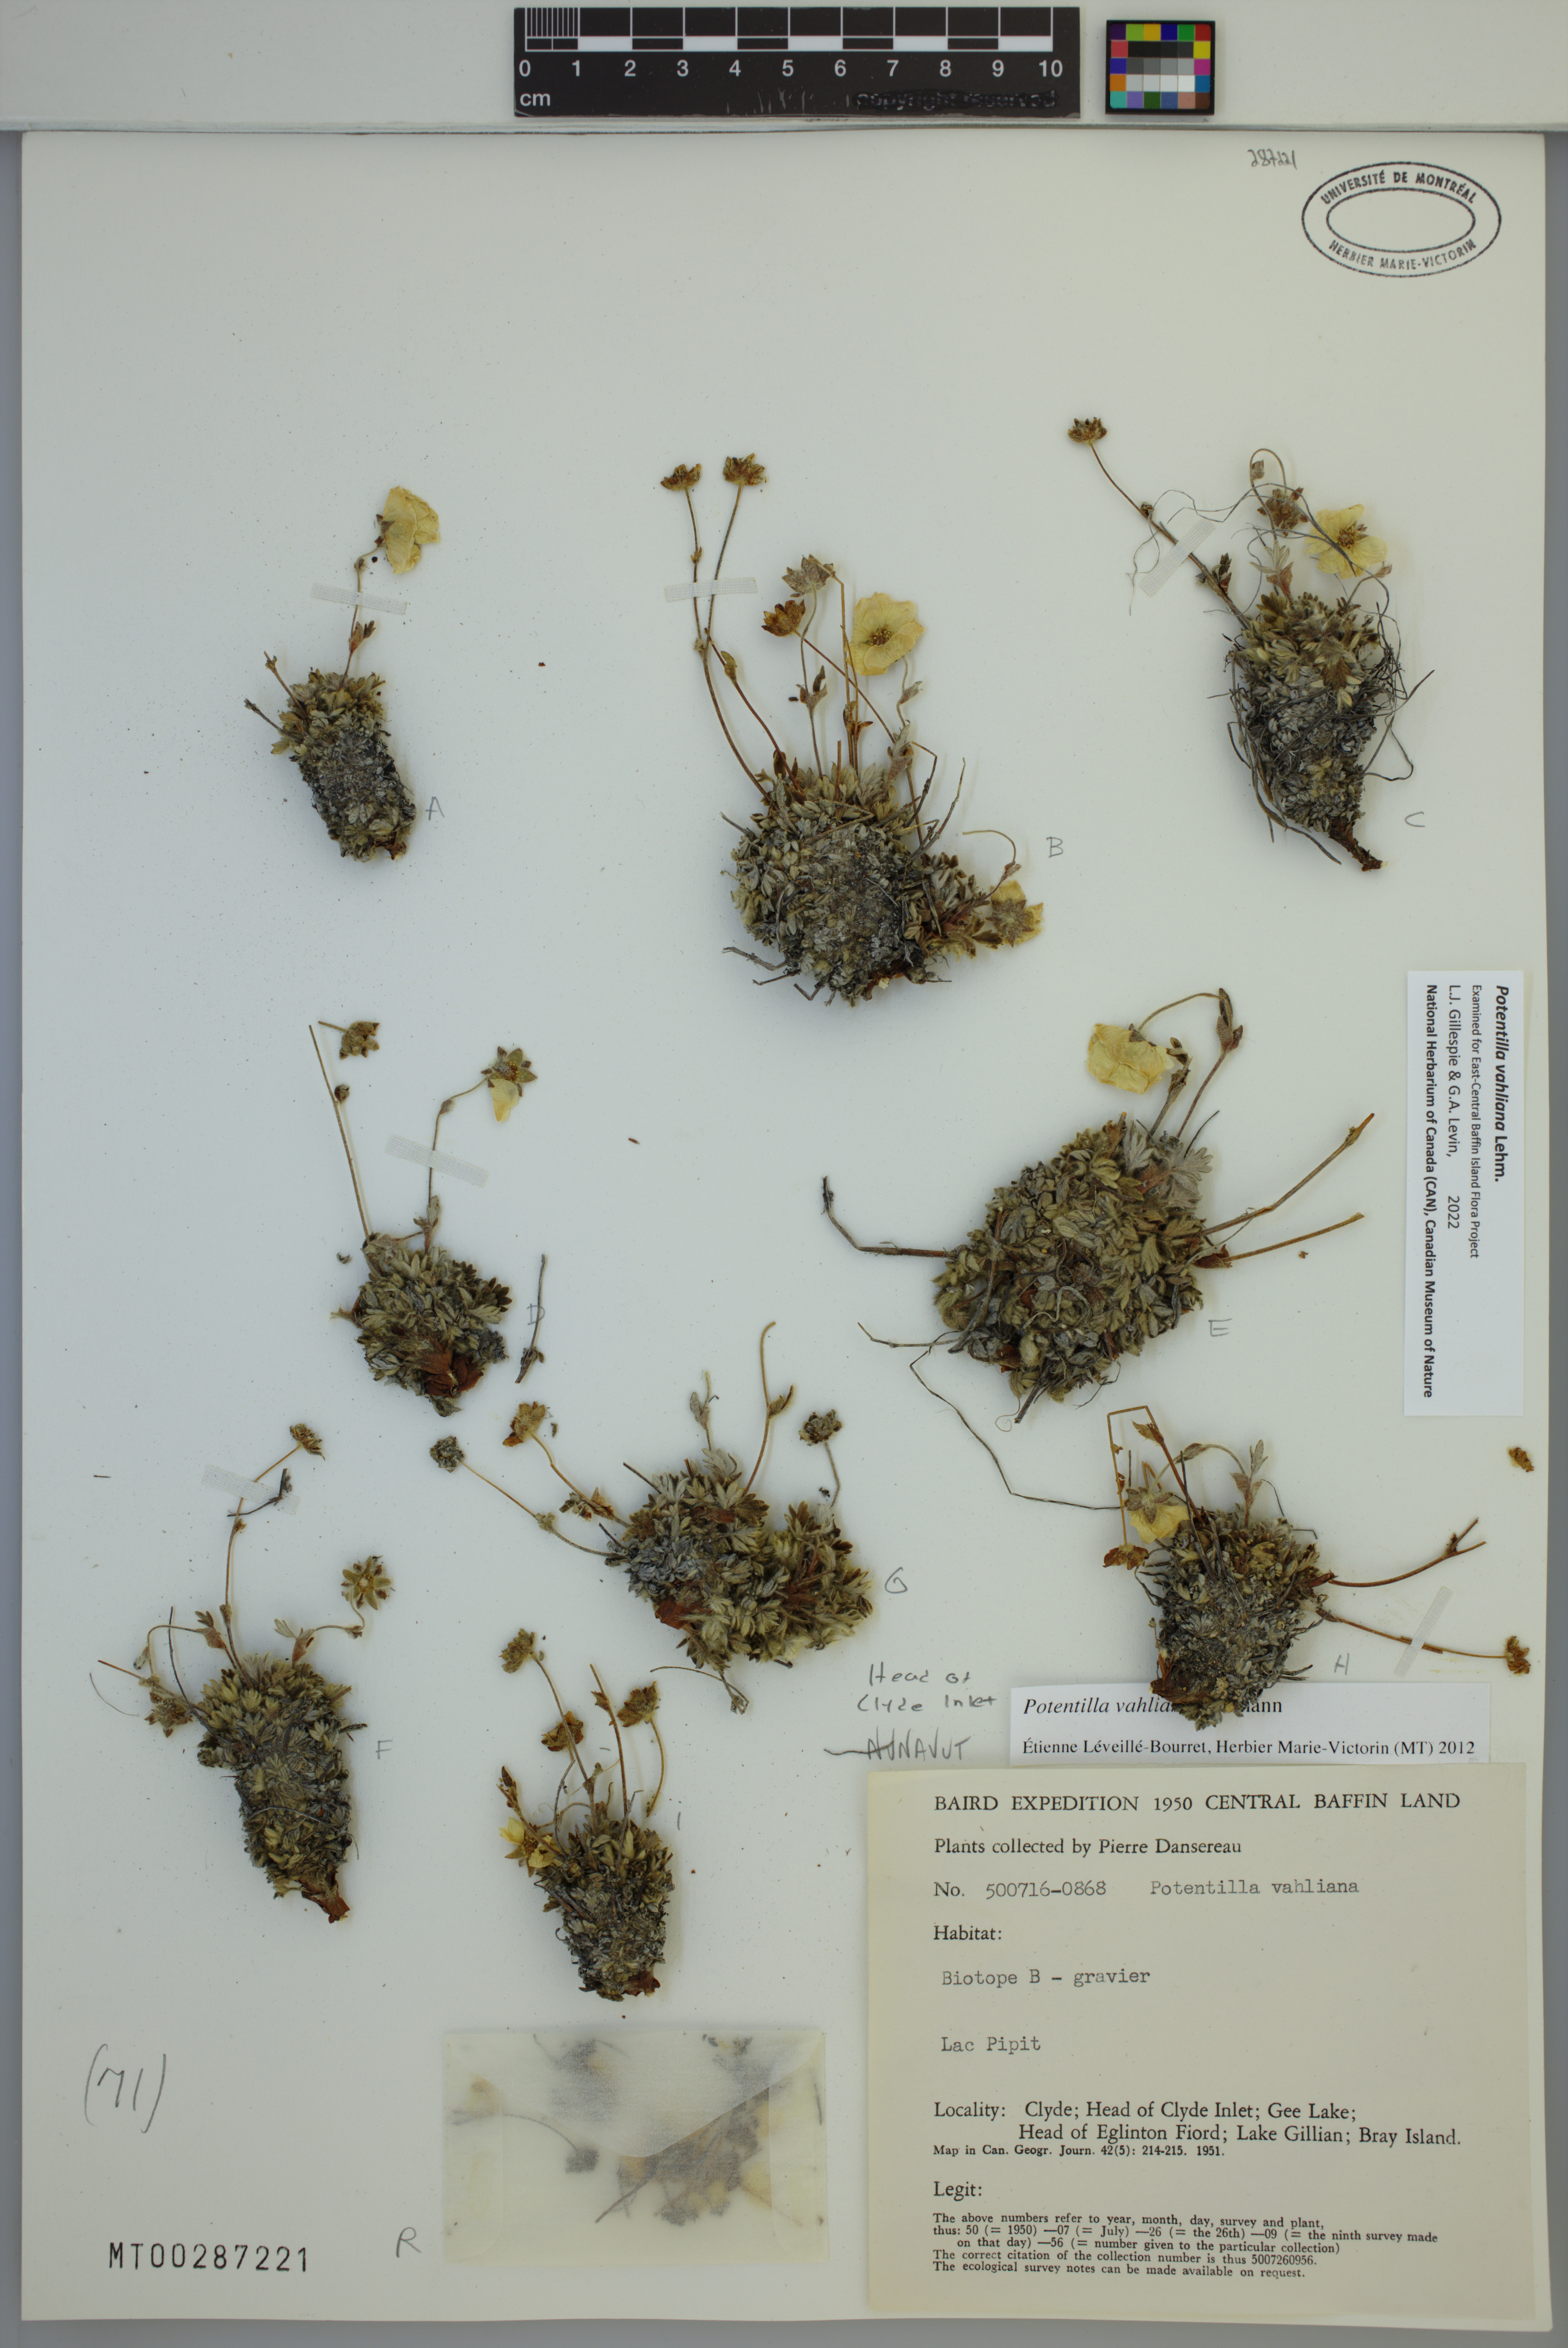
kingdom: Plantae
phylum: Tracheophyta
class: Magnoliopsida
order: Rosales
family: Rosaceae
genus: Potentilla
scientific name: Potentilla vahliana
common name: Vahl's cinquefoil
